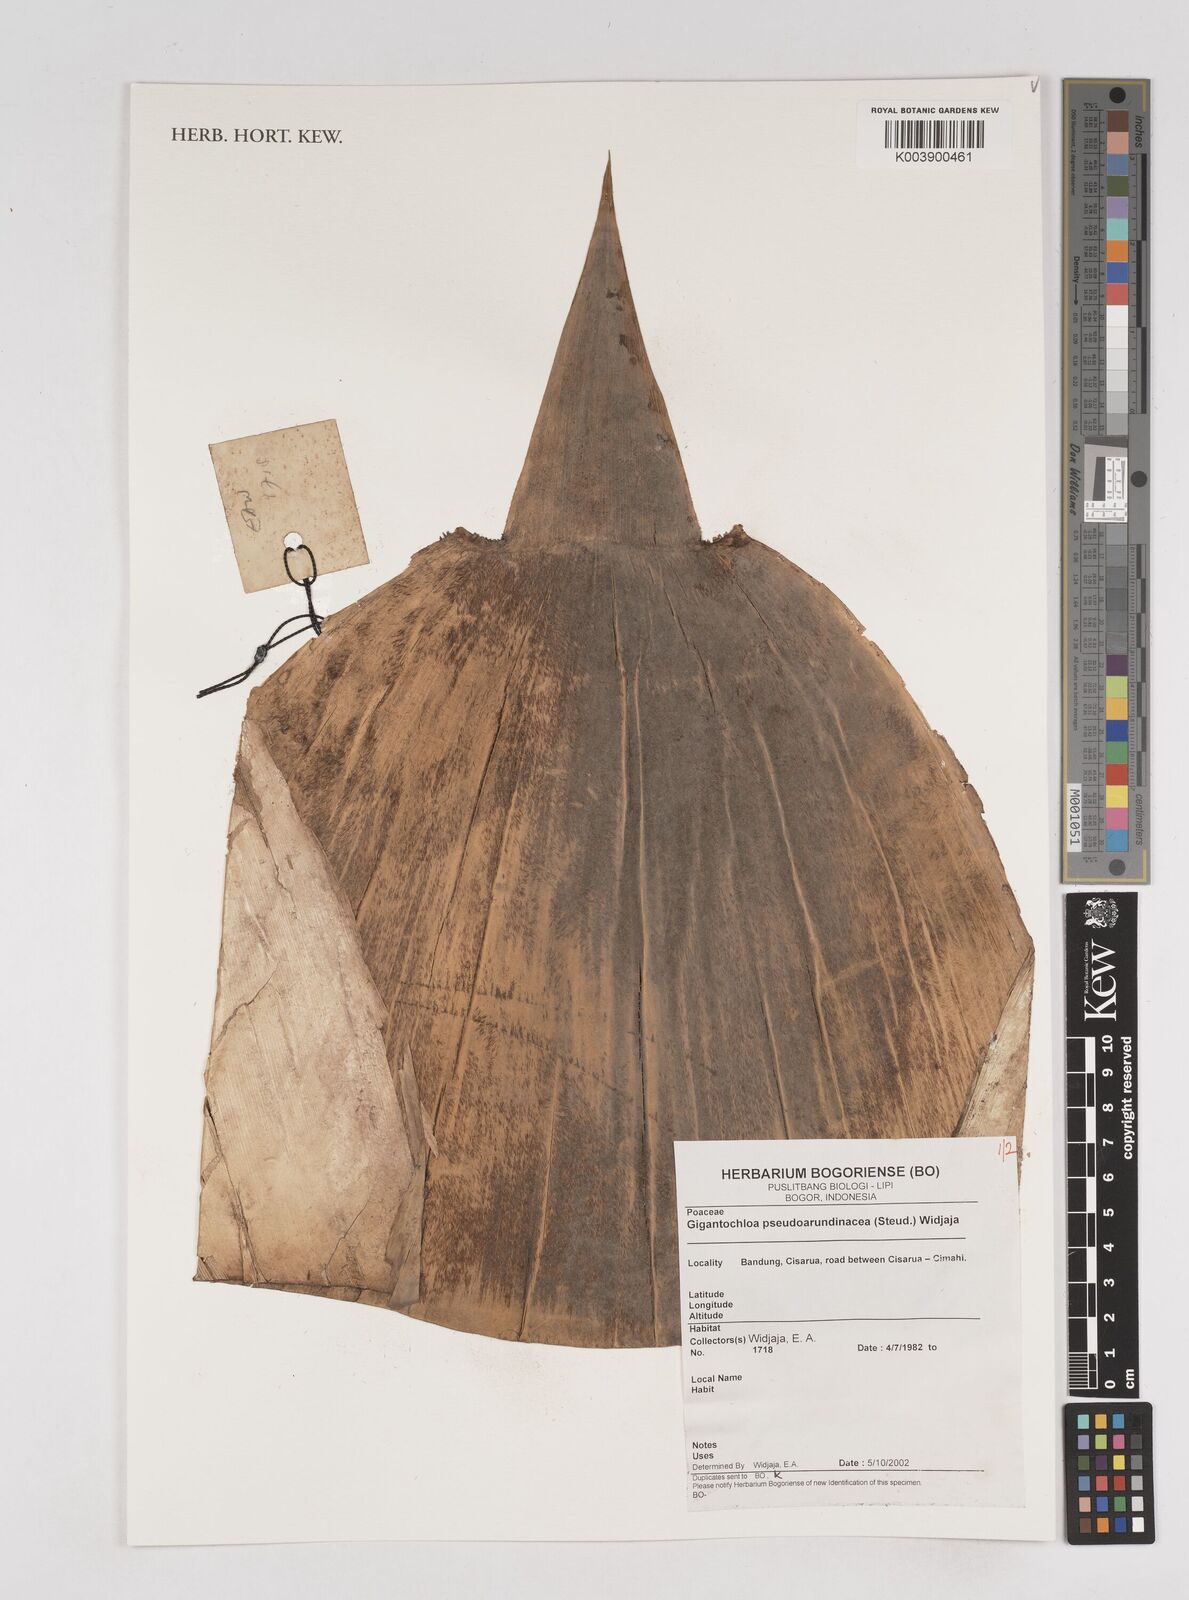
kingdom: Plantae
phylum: Tracheophyta
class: Liliopsida
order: Poales
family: Poaceae
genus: Gigantochloa
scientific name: Gigantochloa verticillata
